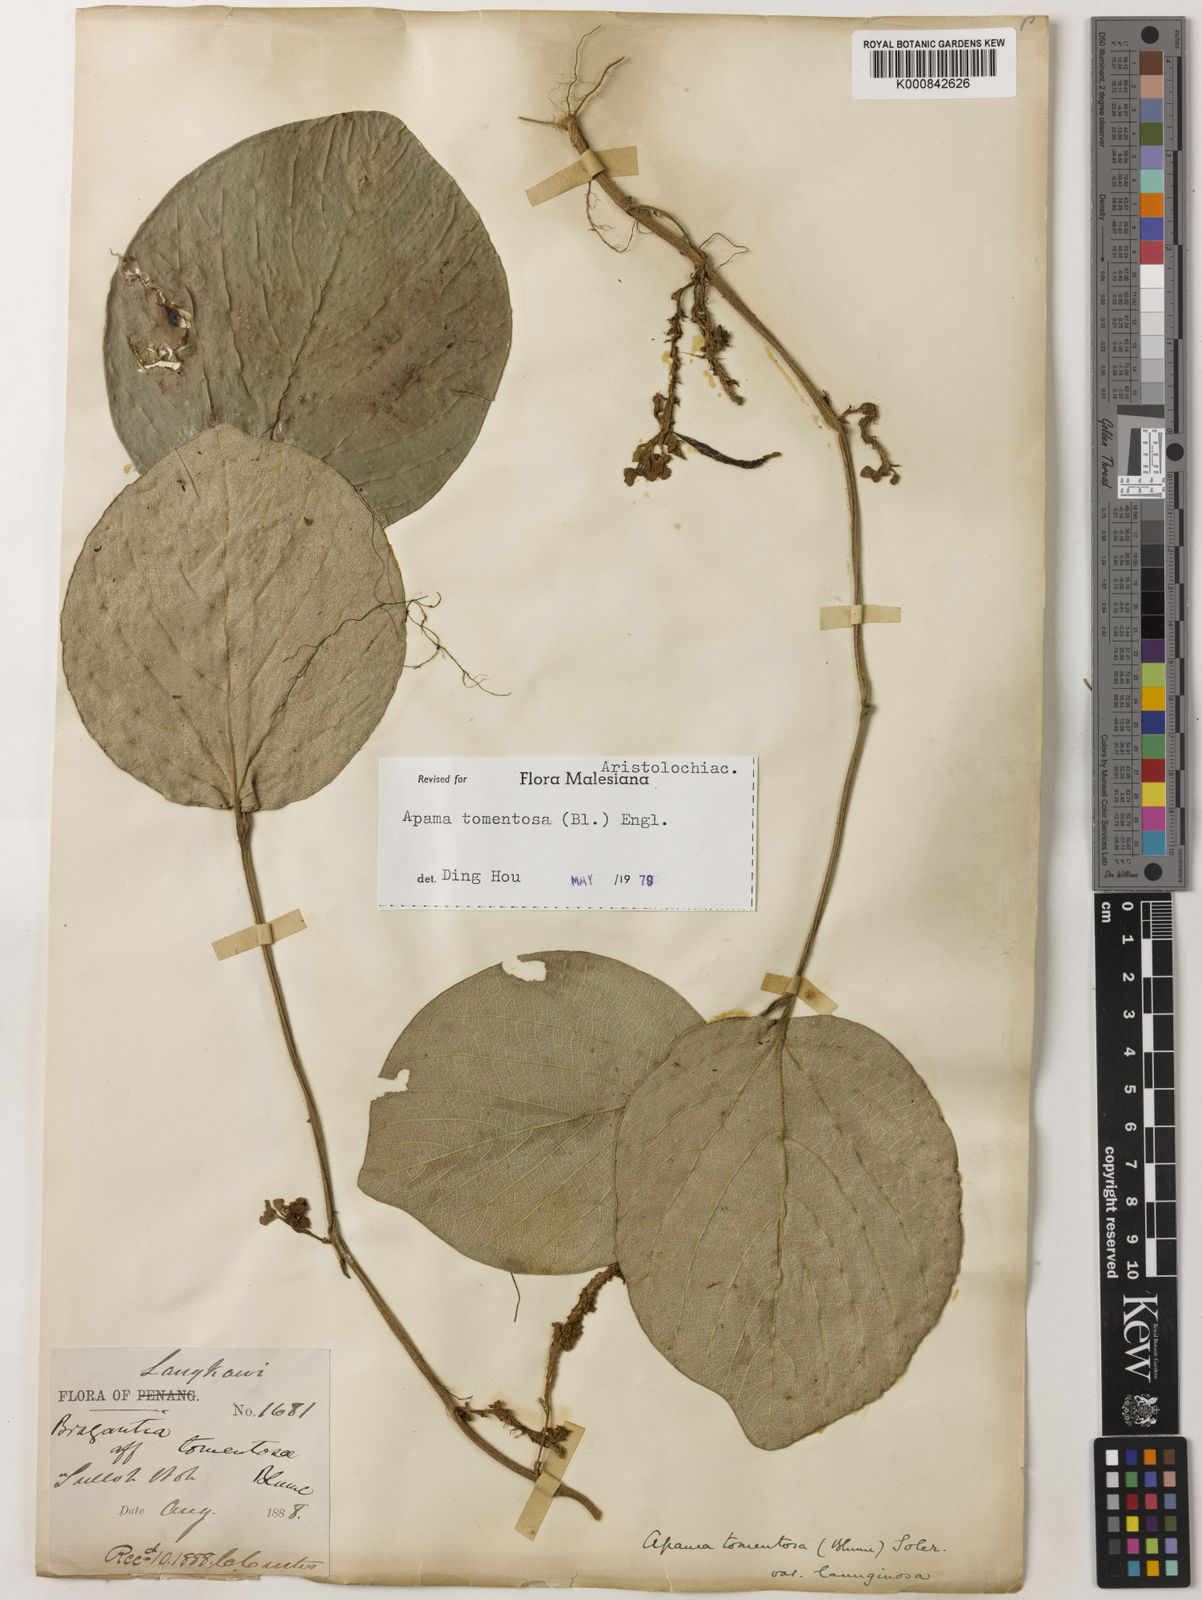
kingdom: Plantae
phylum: Tracheophyta
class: Magnoliopsida
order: Piperales
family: Aristolochiaceae
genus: Thottea
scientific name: Thottea tomentosa
